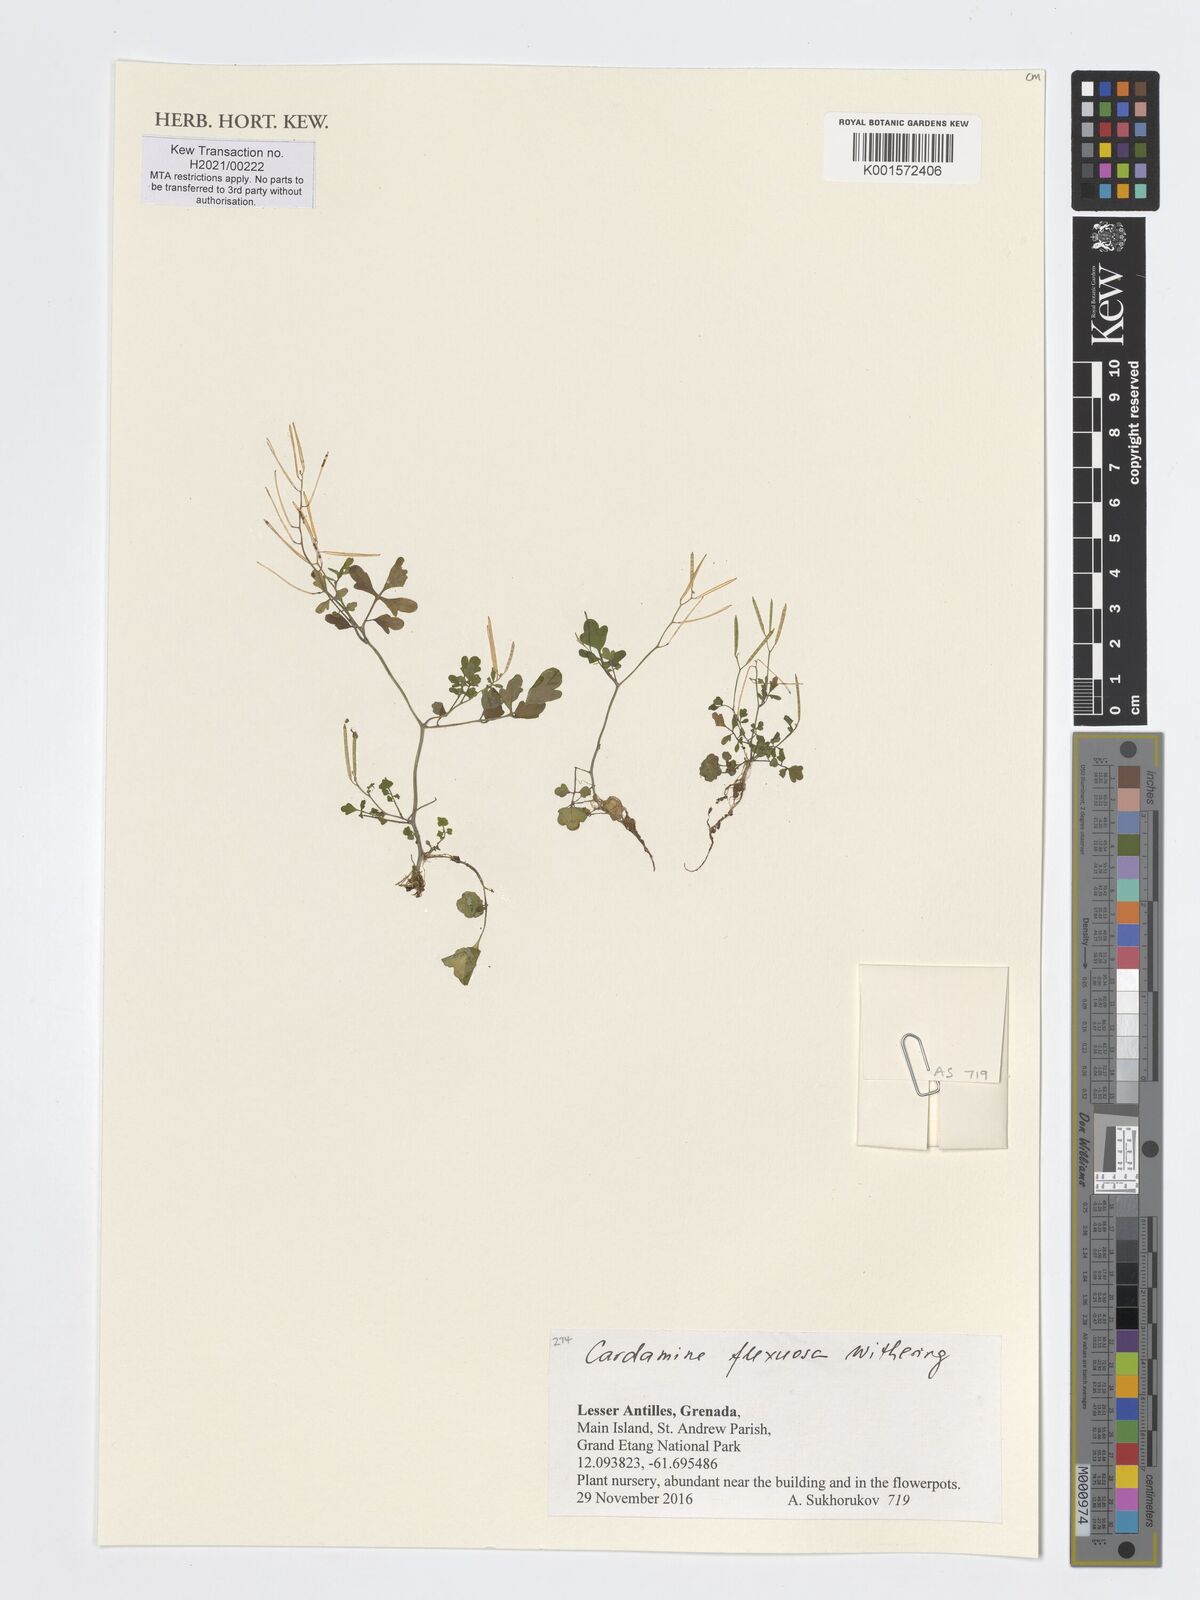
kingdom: Plantae
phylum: Tracheophyta
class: Magnoliopsida
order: Brassicales
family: Brassicaceae
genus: Cardamine
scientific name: Cardamine flexuosa
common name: Woodland bittercress
